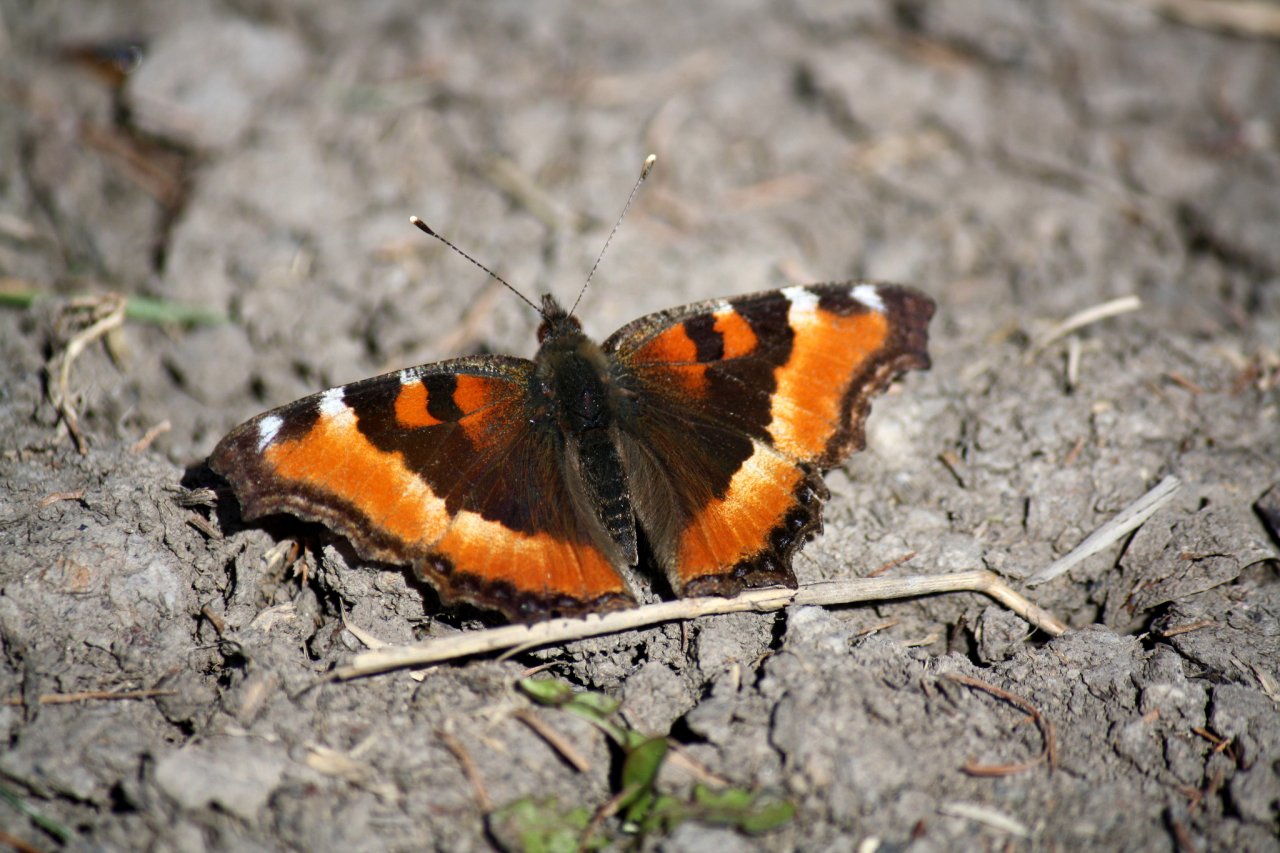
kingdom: Animalia
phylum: Arthropoda
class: Insecta
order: Lepidoptera
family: Nymphalidae
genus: Aglais
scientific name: Aglais milberti
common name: Milbert's Tortoiseshell
